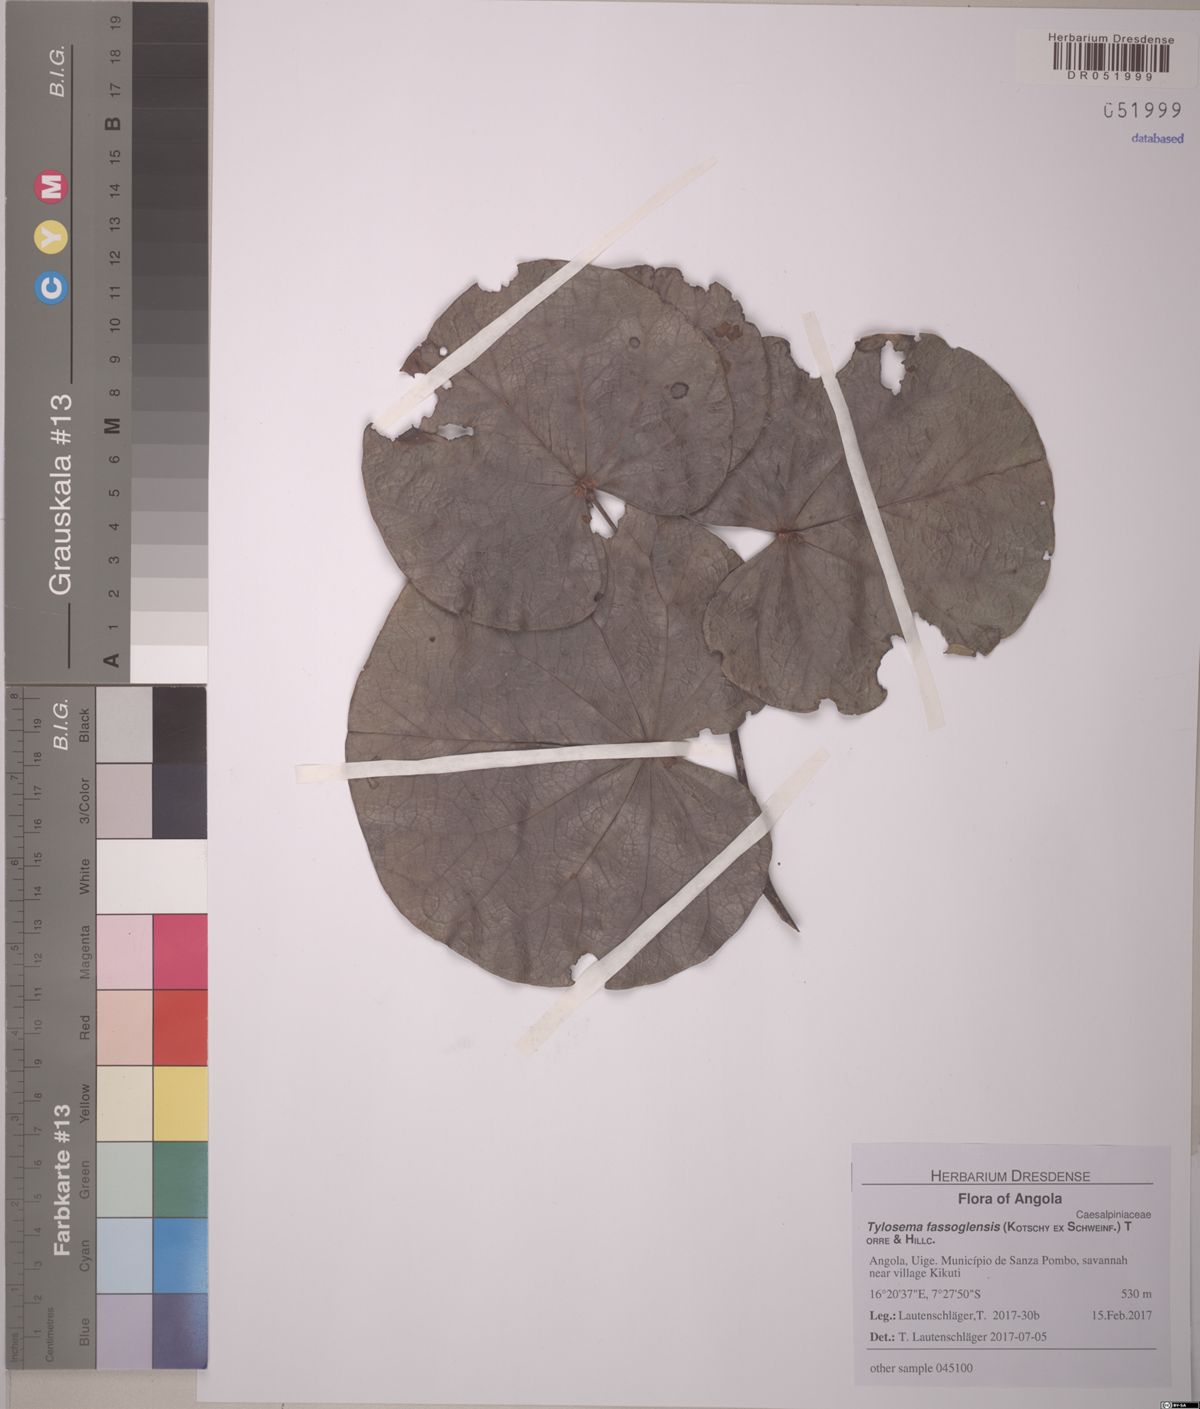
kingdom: Plantae
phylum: Tracheophyta
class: Magnoliopsida
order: Fabales
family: Fabaceae
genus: Tylosema
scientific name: Tylosema fassoglense
